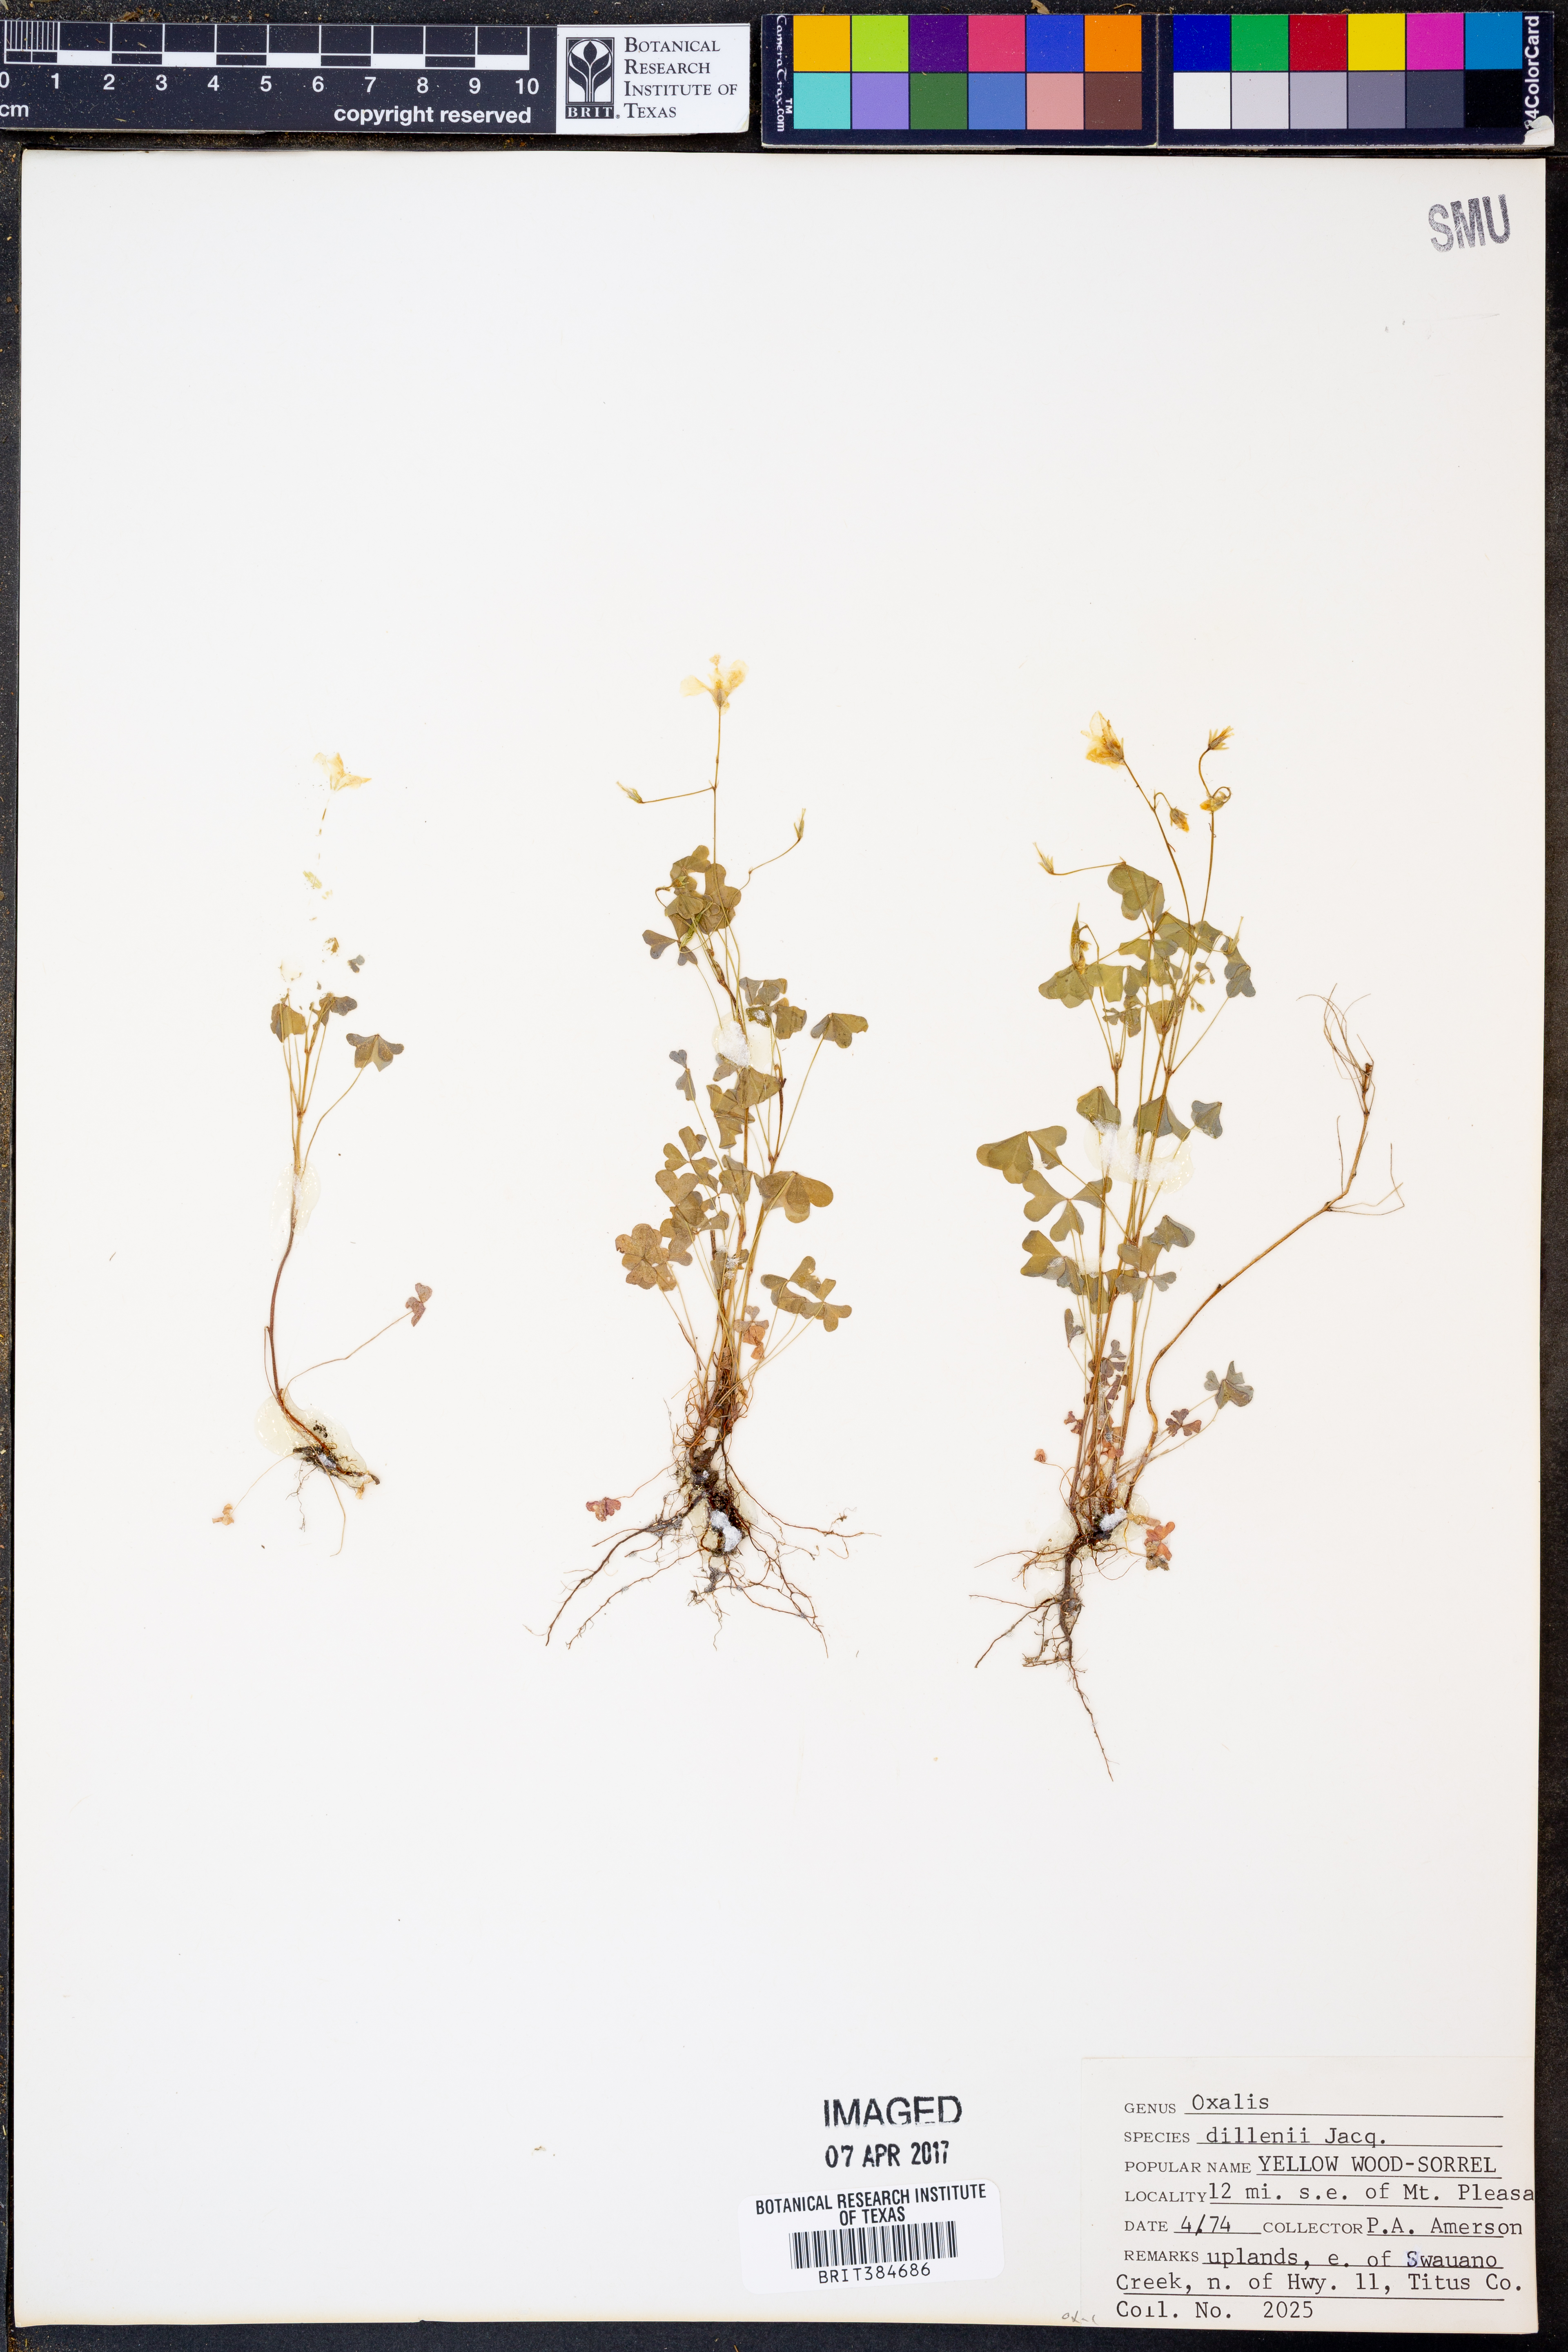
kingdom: Plantae
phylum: Tracheophyta
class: Magnoliopsida
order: Oxalidales
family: Oxalidaceae
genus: Oxalis
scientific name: Oxalis dillenii
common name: Sussex yellow-sorrel
